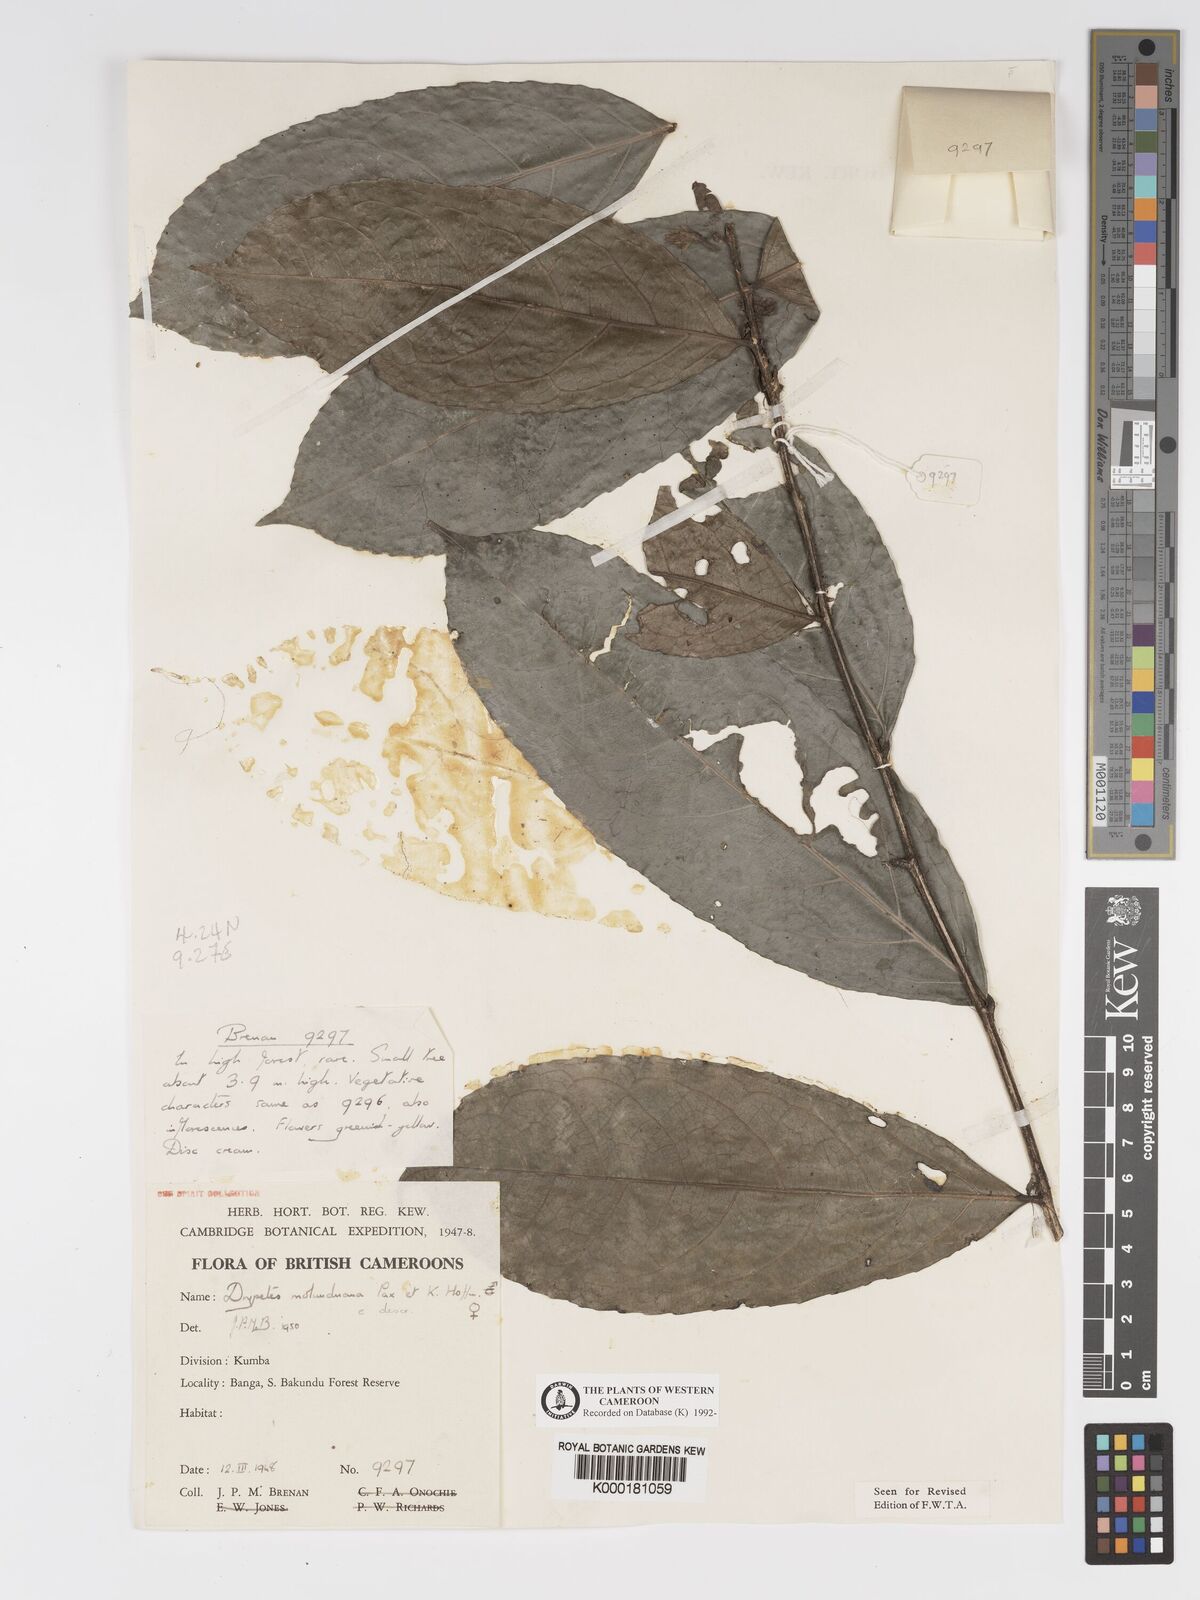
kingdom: Plantae
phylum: Tracheophyta
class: Magnoliopsida
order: Malpighiales
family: Putranjivaceae
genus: Drypetes
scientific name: Drypetes molunduana
